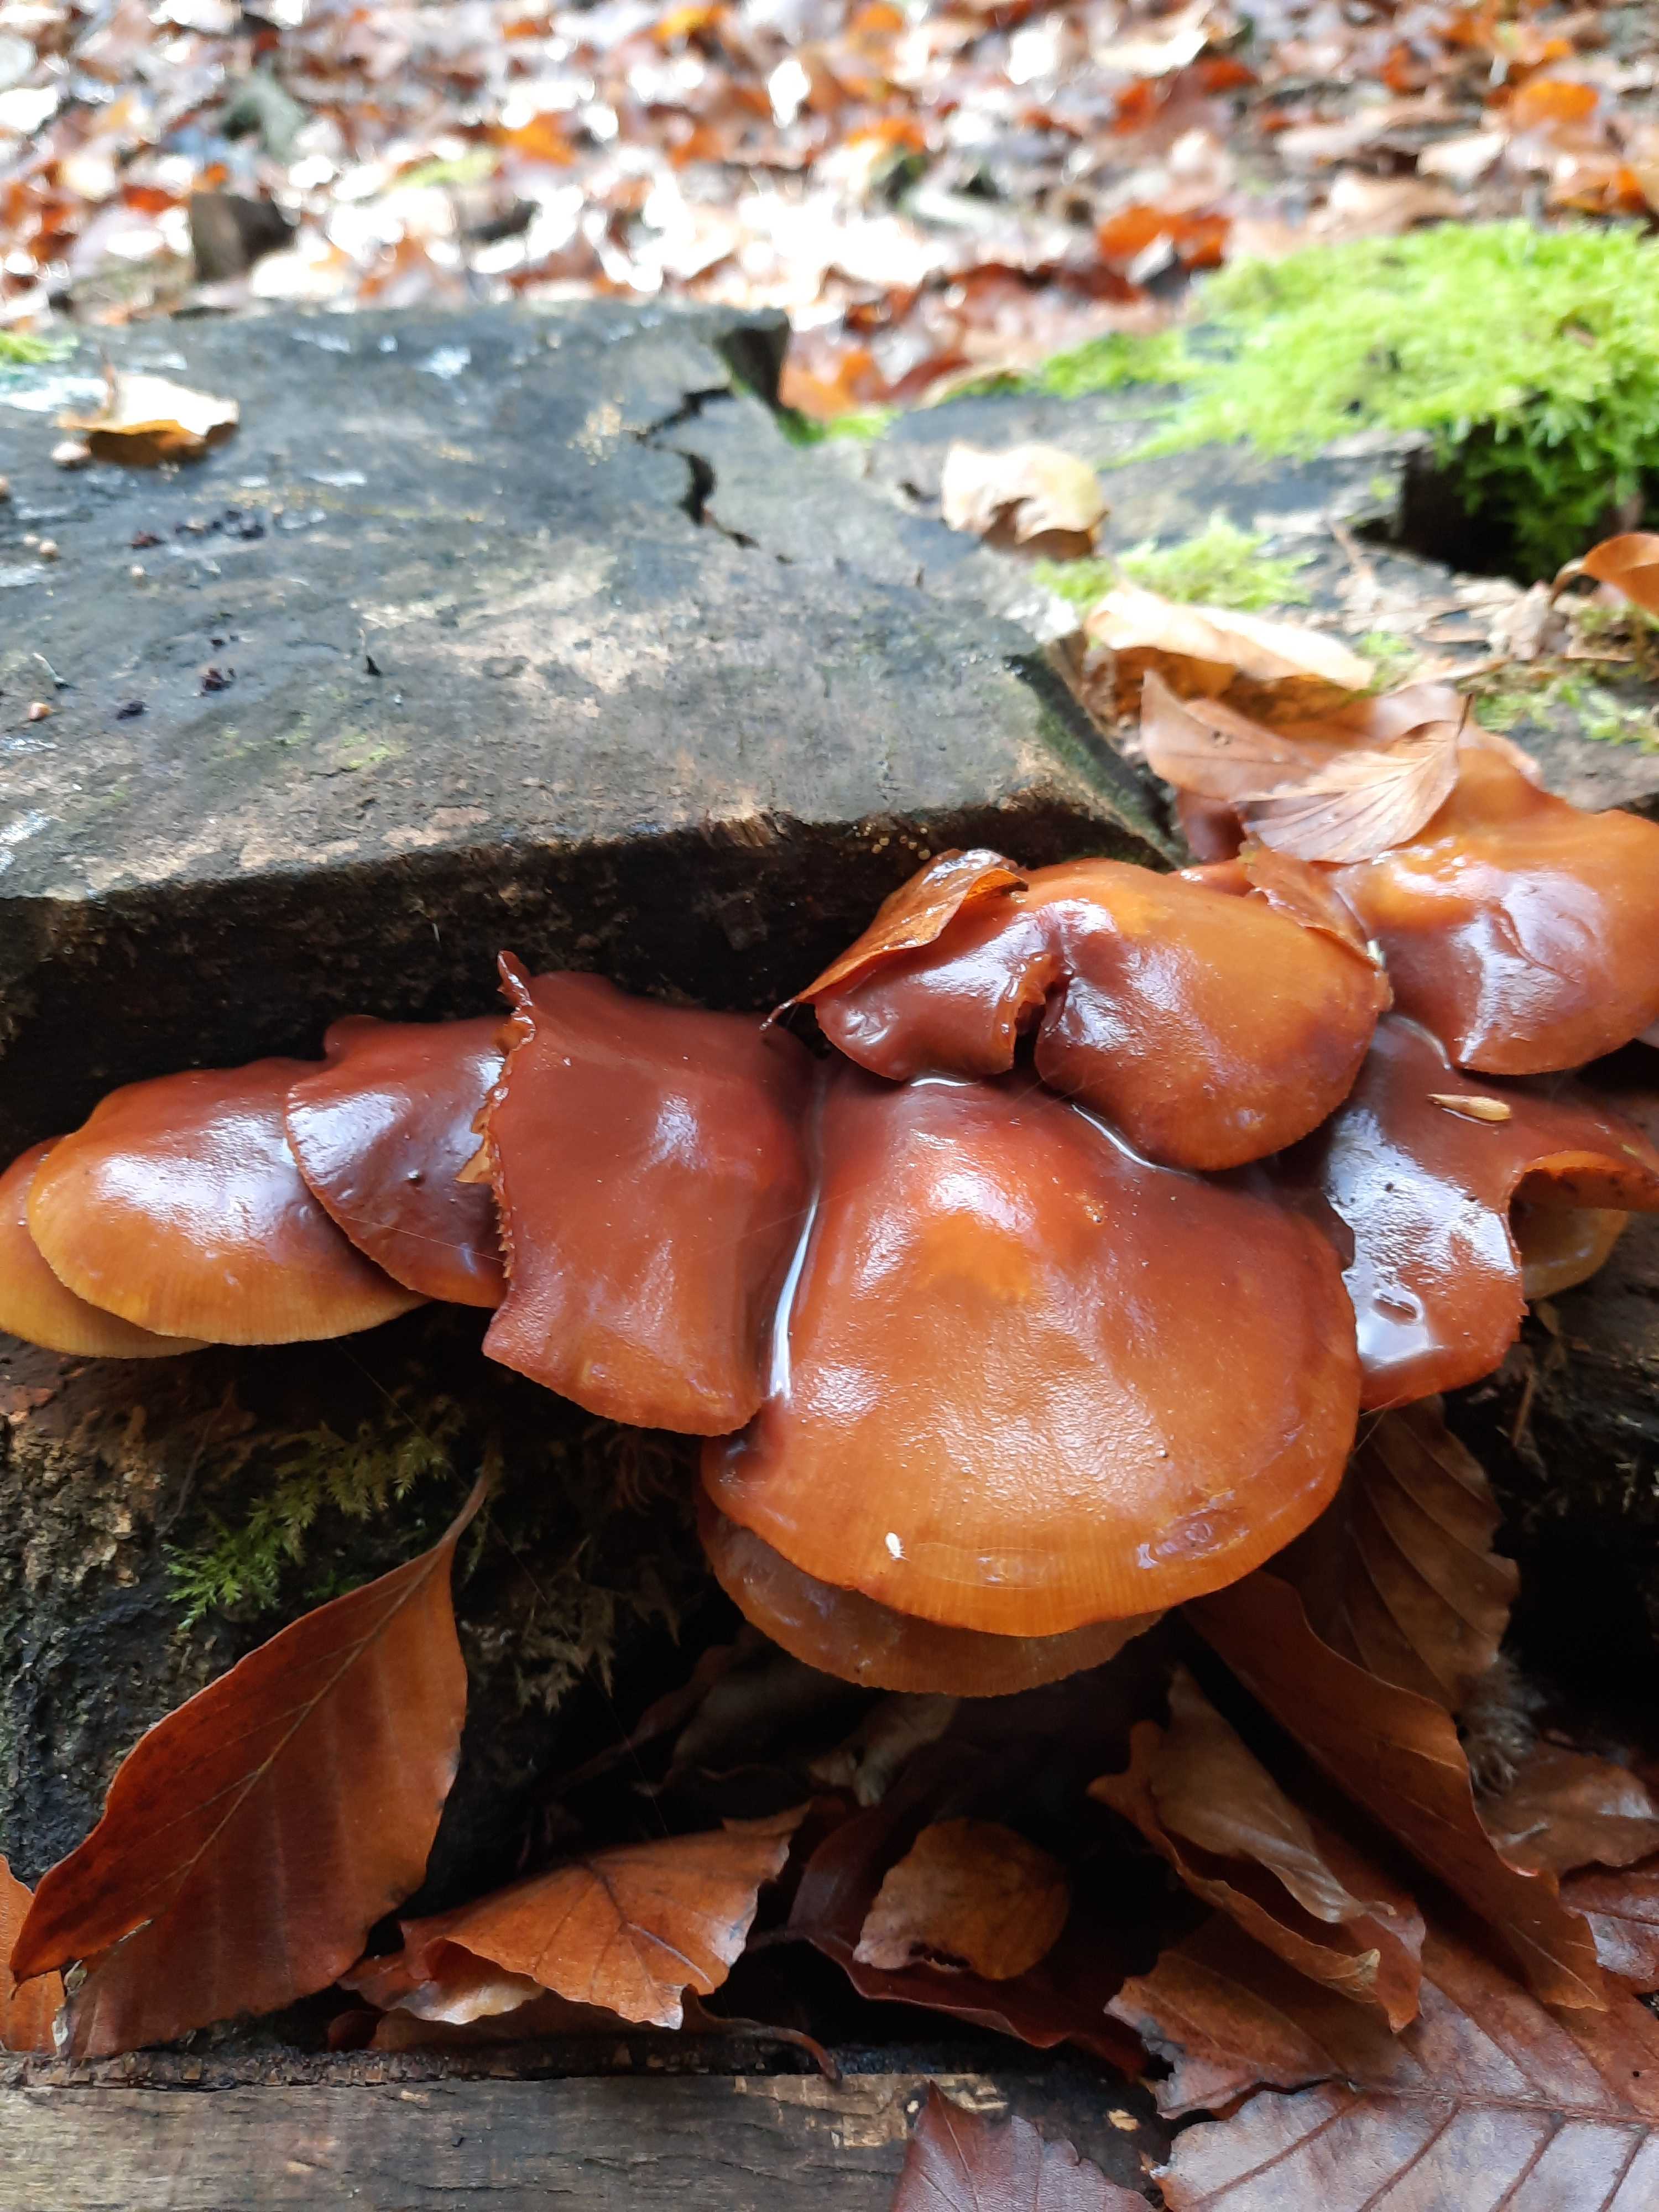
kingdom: Fungi
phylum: Basidiomycota
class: Agaricomycetes
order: Agaricales
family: Strophariaceae
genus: Kuehneromyces
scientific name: Kuehneromyces mutabilis
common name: foranderlig skælhat
